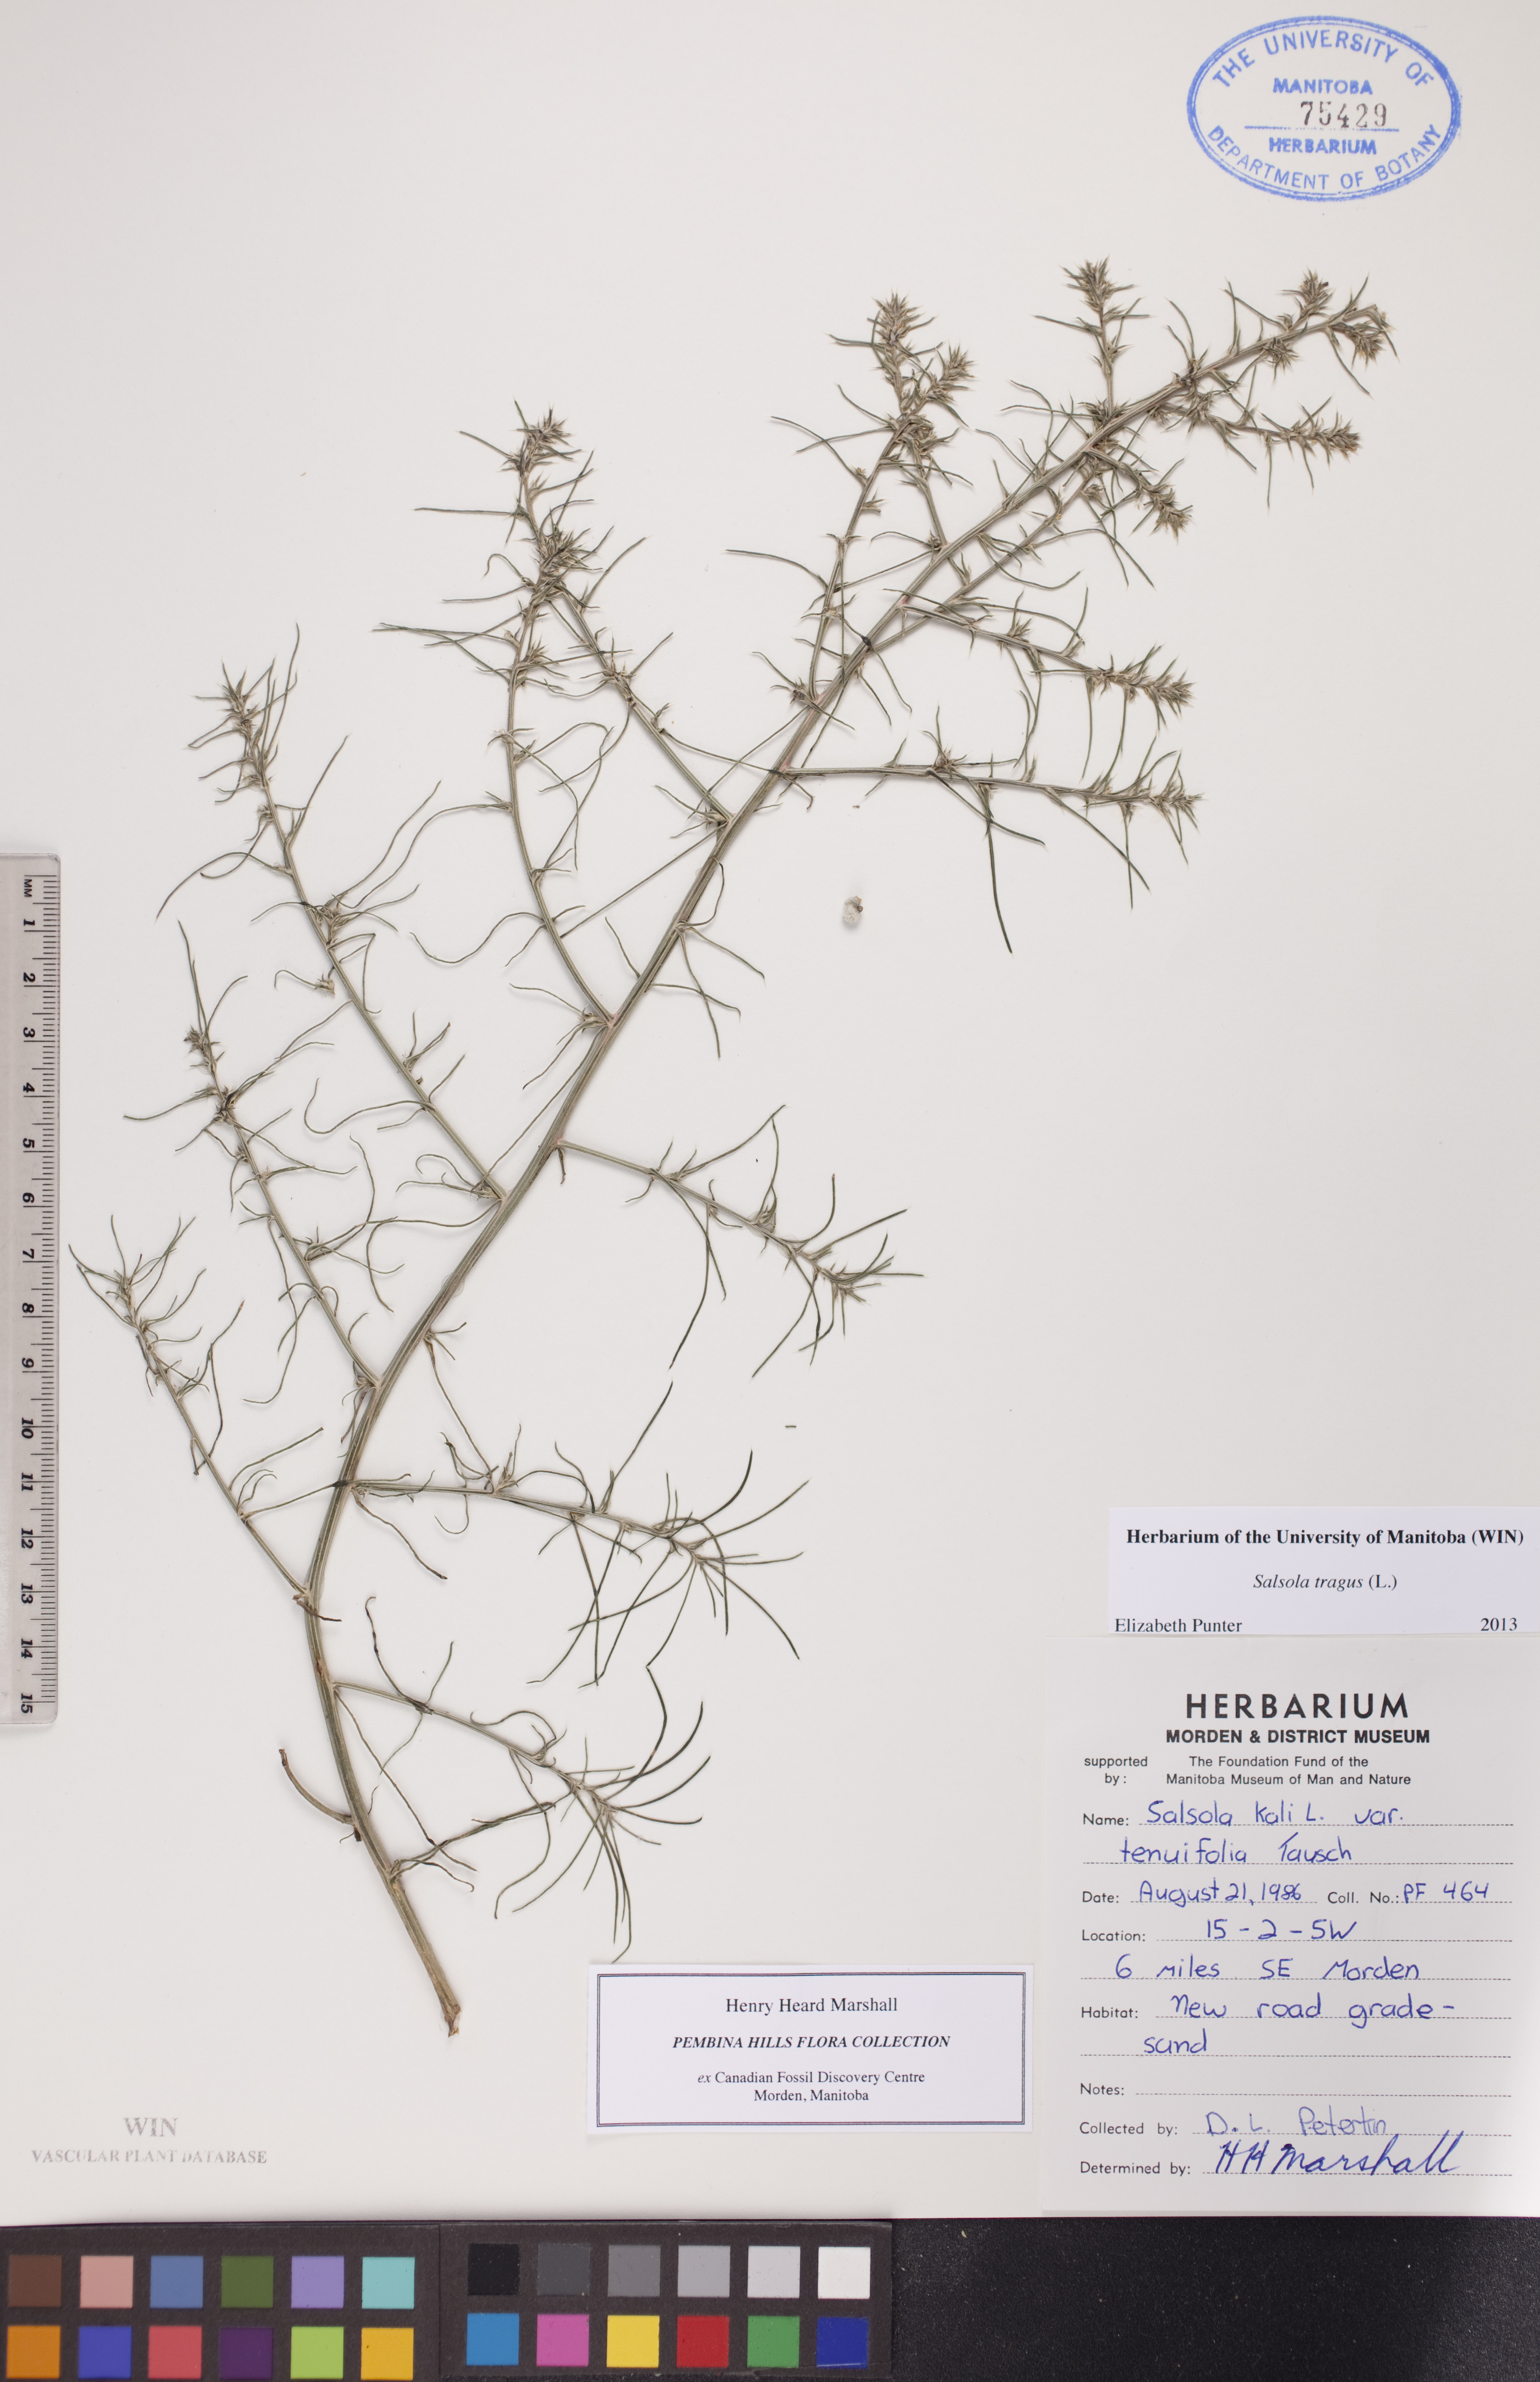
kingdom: Plantae
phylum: Tracheophyta
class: Magnoliopsida
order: Caryophyllales
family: Amaranthaceae
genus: Salsola
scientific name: Salsola tragus
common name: Prickly russian thistle
